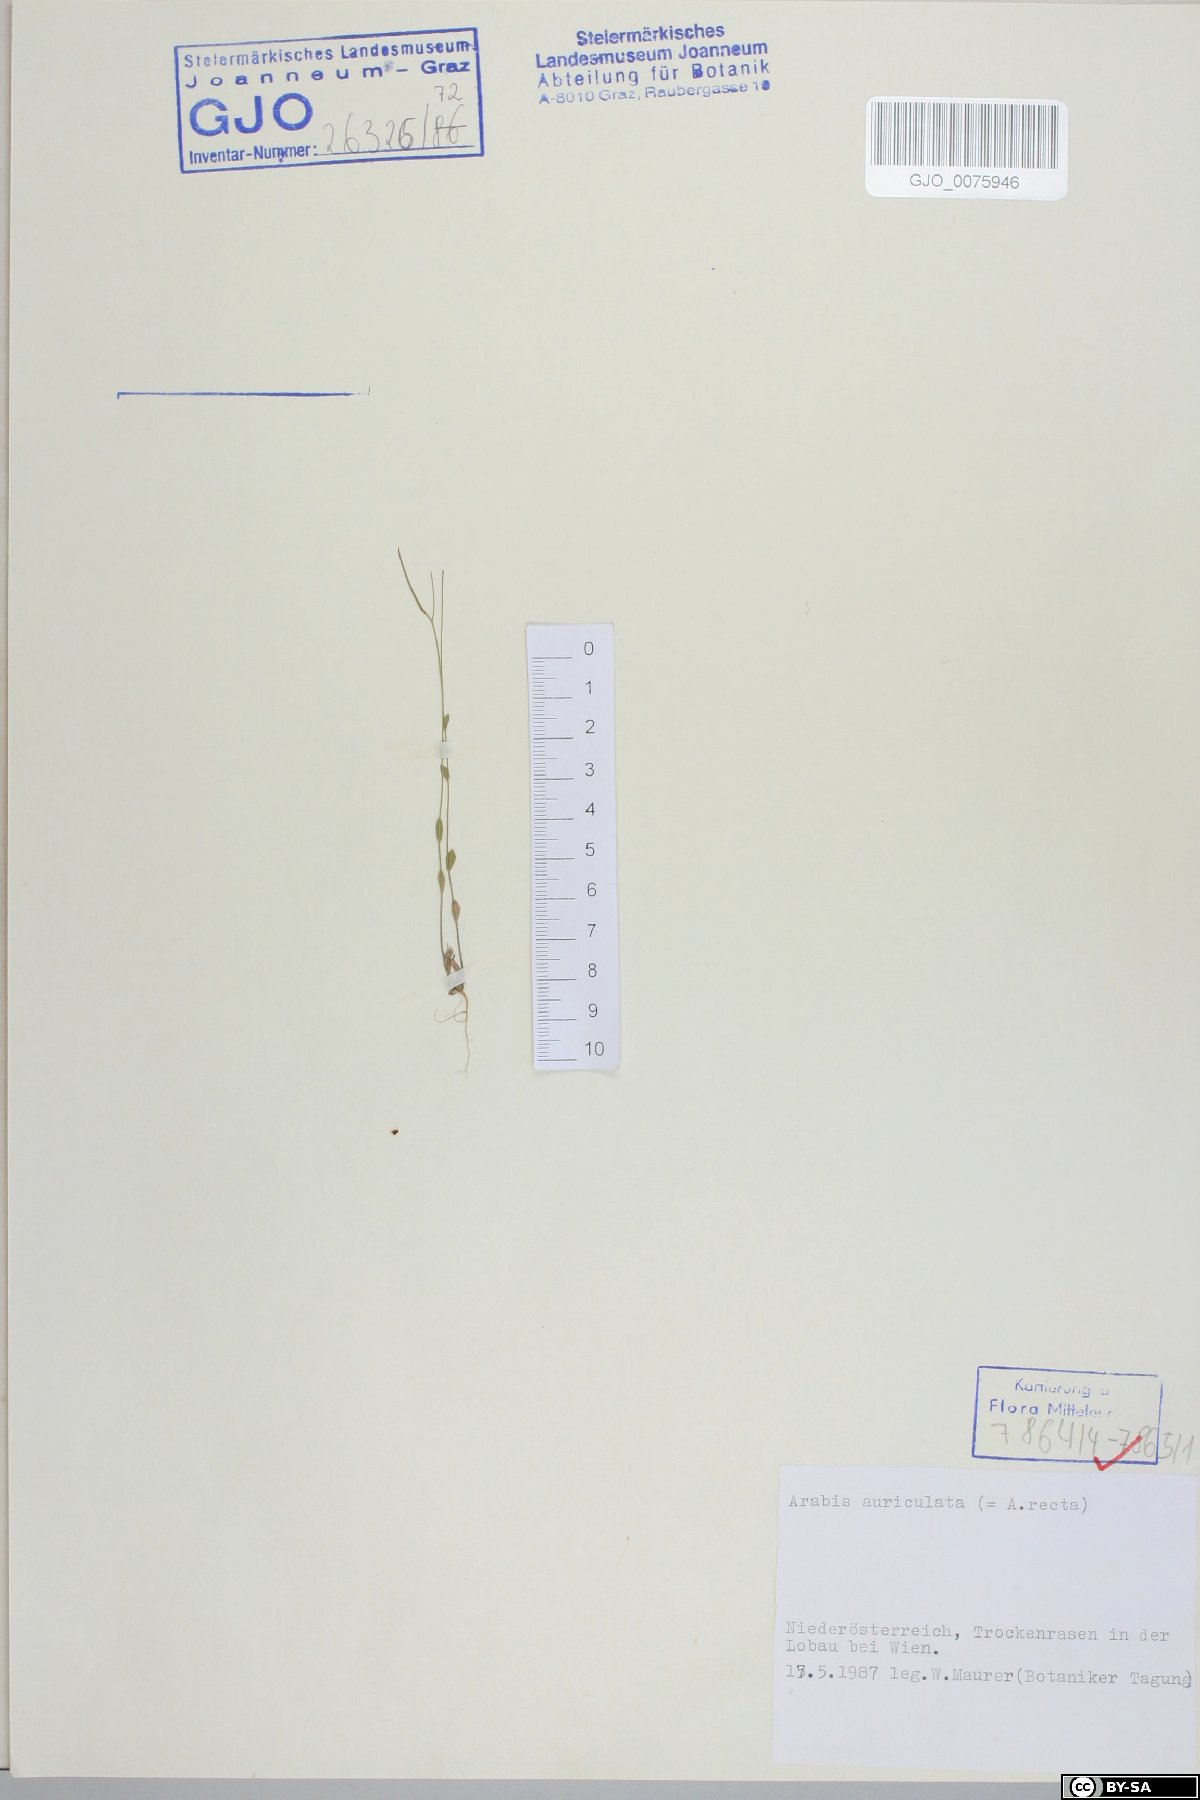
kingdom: Plantae
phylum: Tracheophyta
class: Magnoliopsida
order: Brassicales
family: Brassicaceae
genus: Arabis
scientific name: Arabis auriculata
